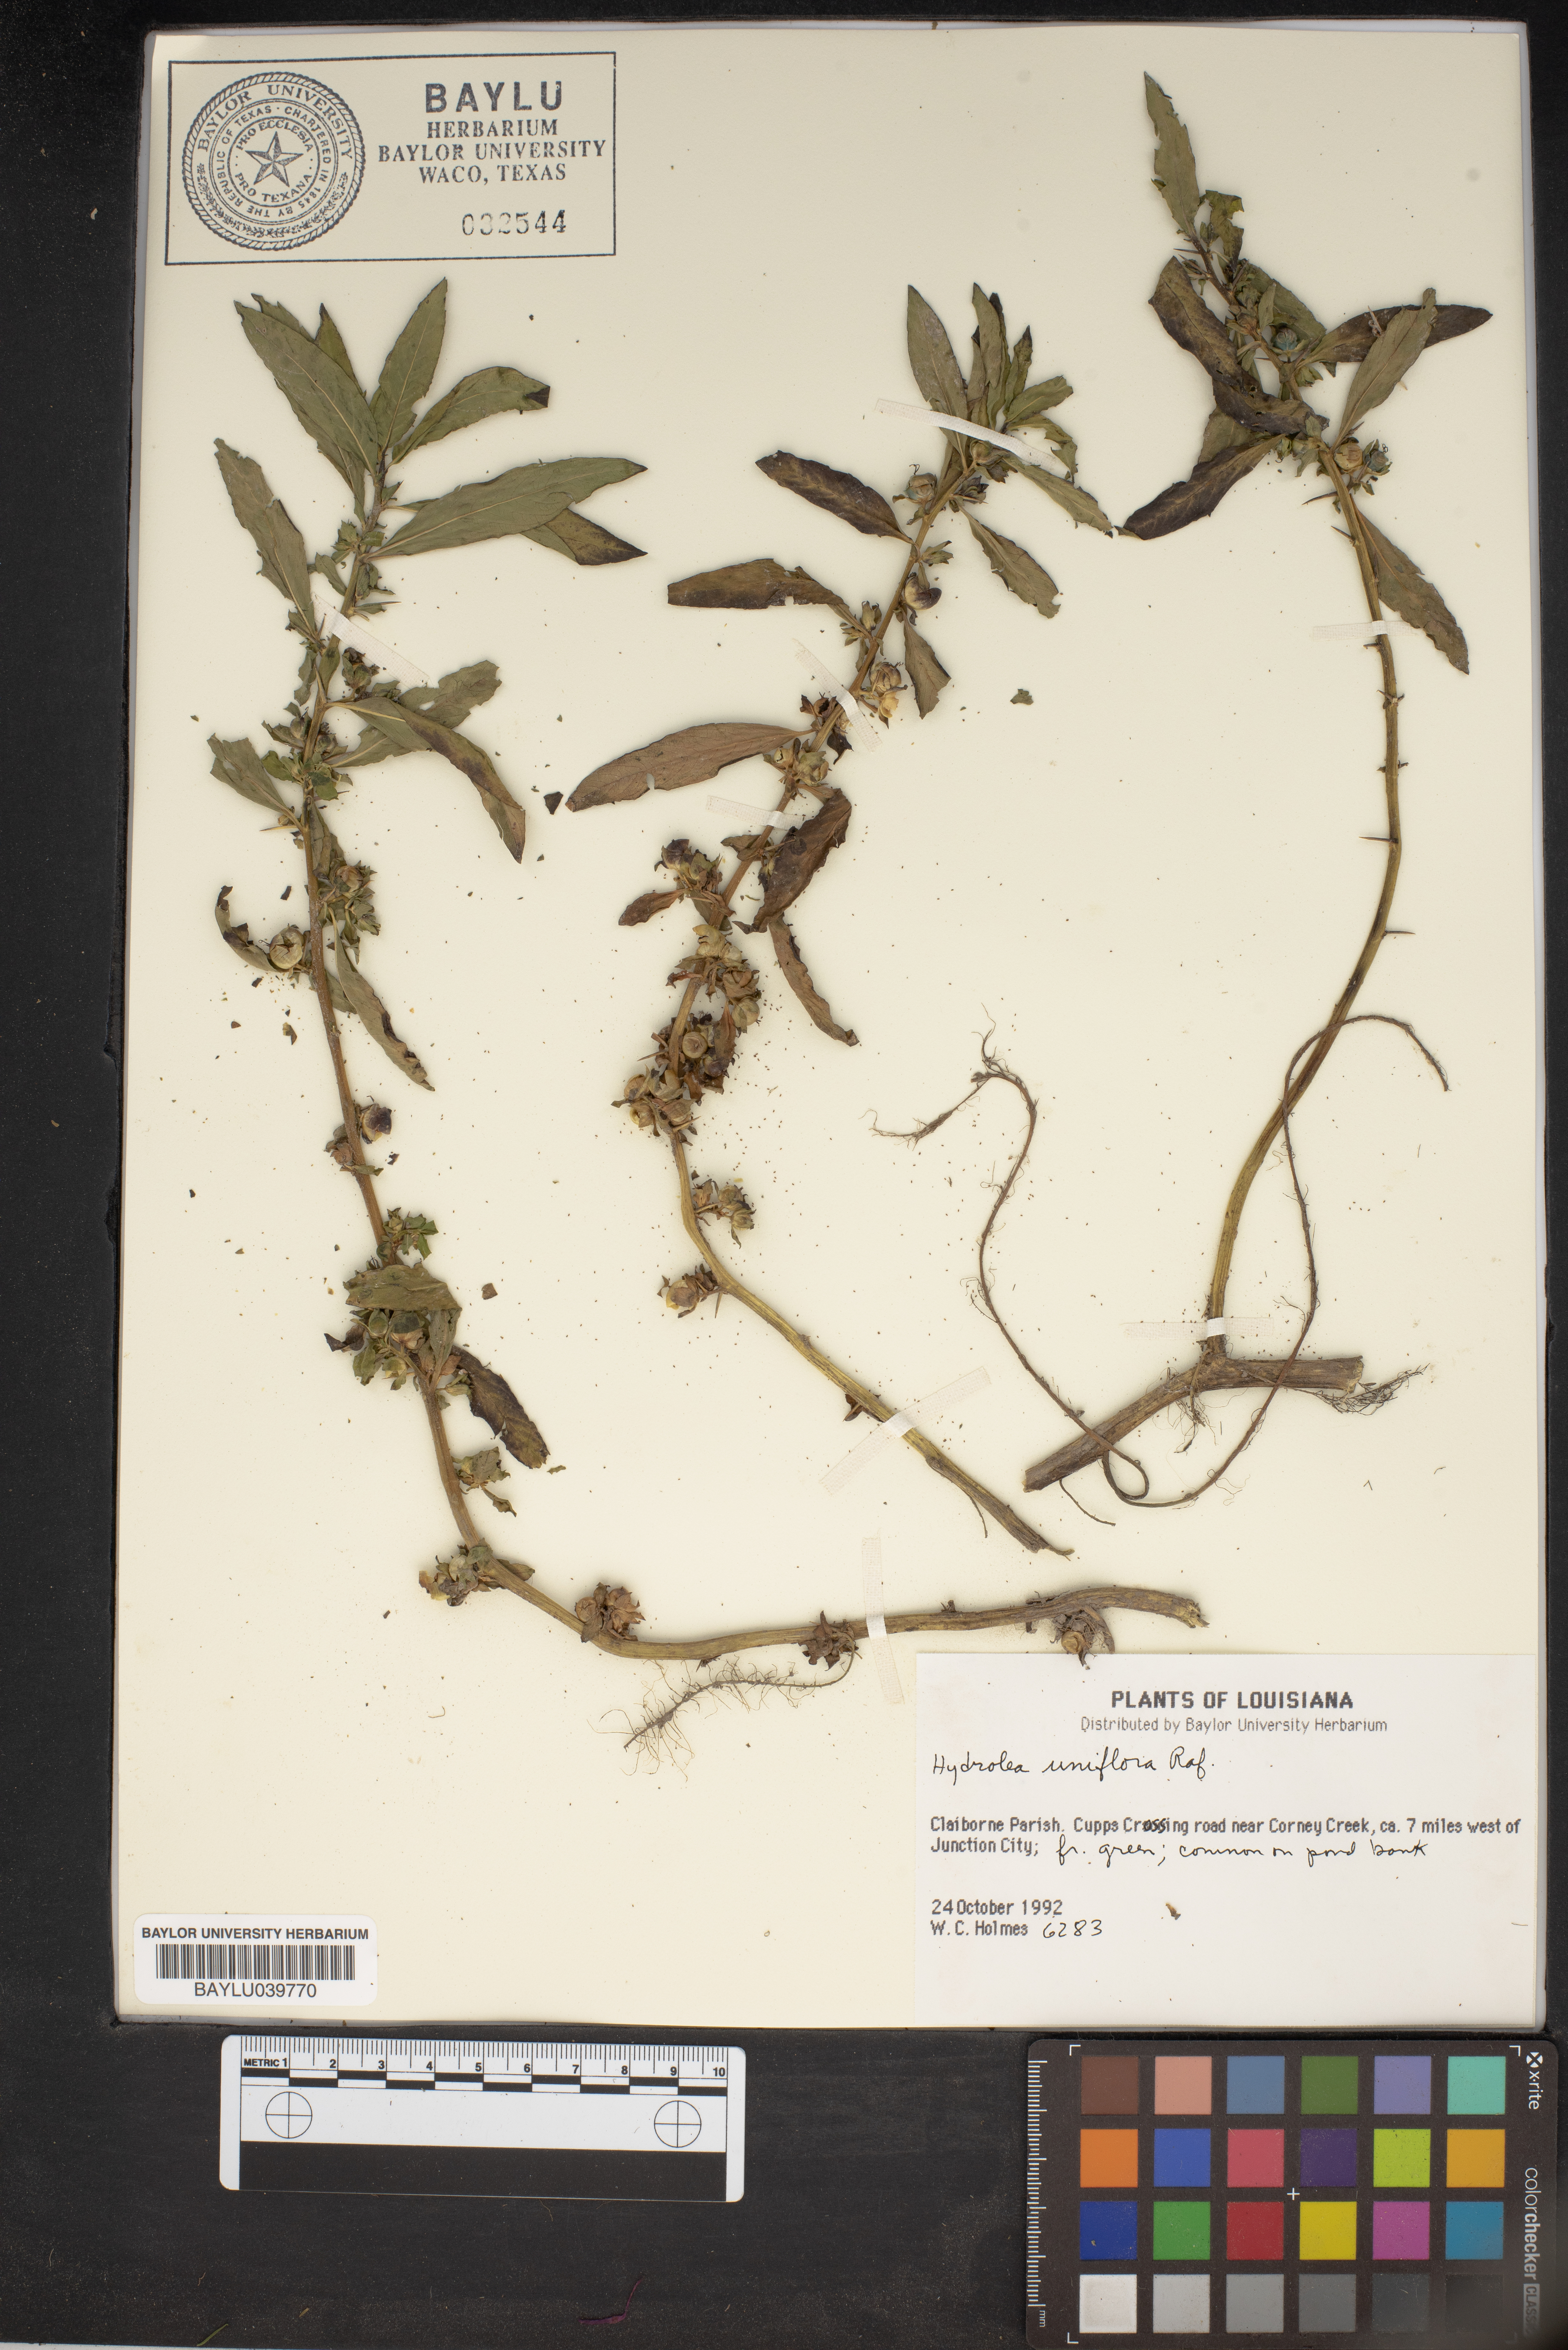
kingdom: Plantae
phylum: Tracheophyta
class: Magnoliopsida
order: Solanales
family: Hydroleaceae
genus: Hydrolea
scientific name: Hydrolea uniflora
